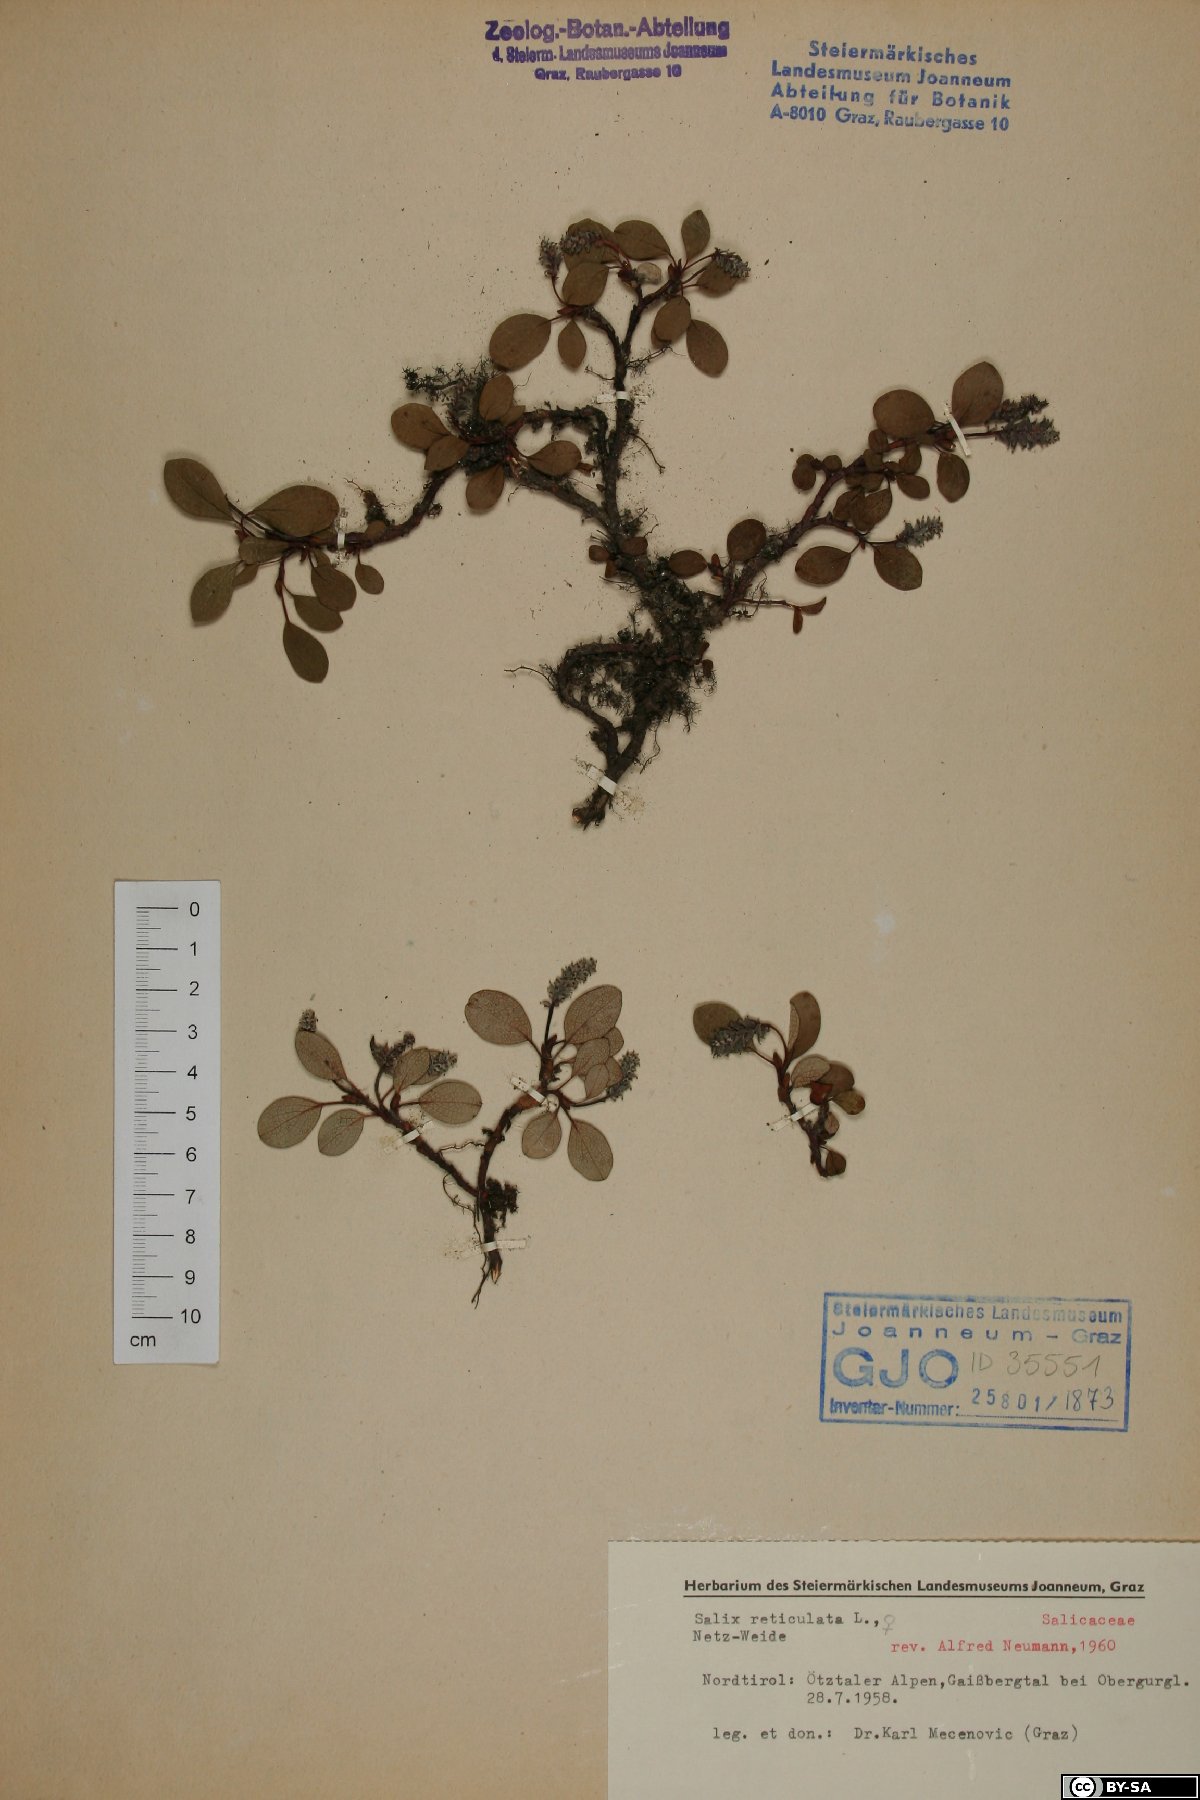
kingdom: Plantae
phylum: Tracheophyta
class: Magnoliopsida
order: Malpighiales
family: Salicaceae
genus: Salix
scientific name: Salix reticulata
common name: Net-leaved willow
